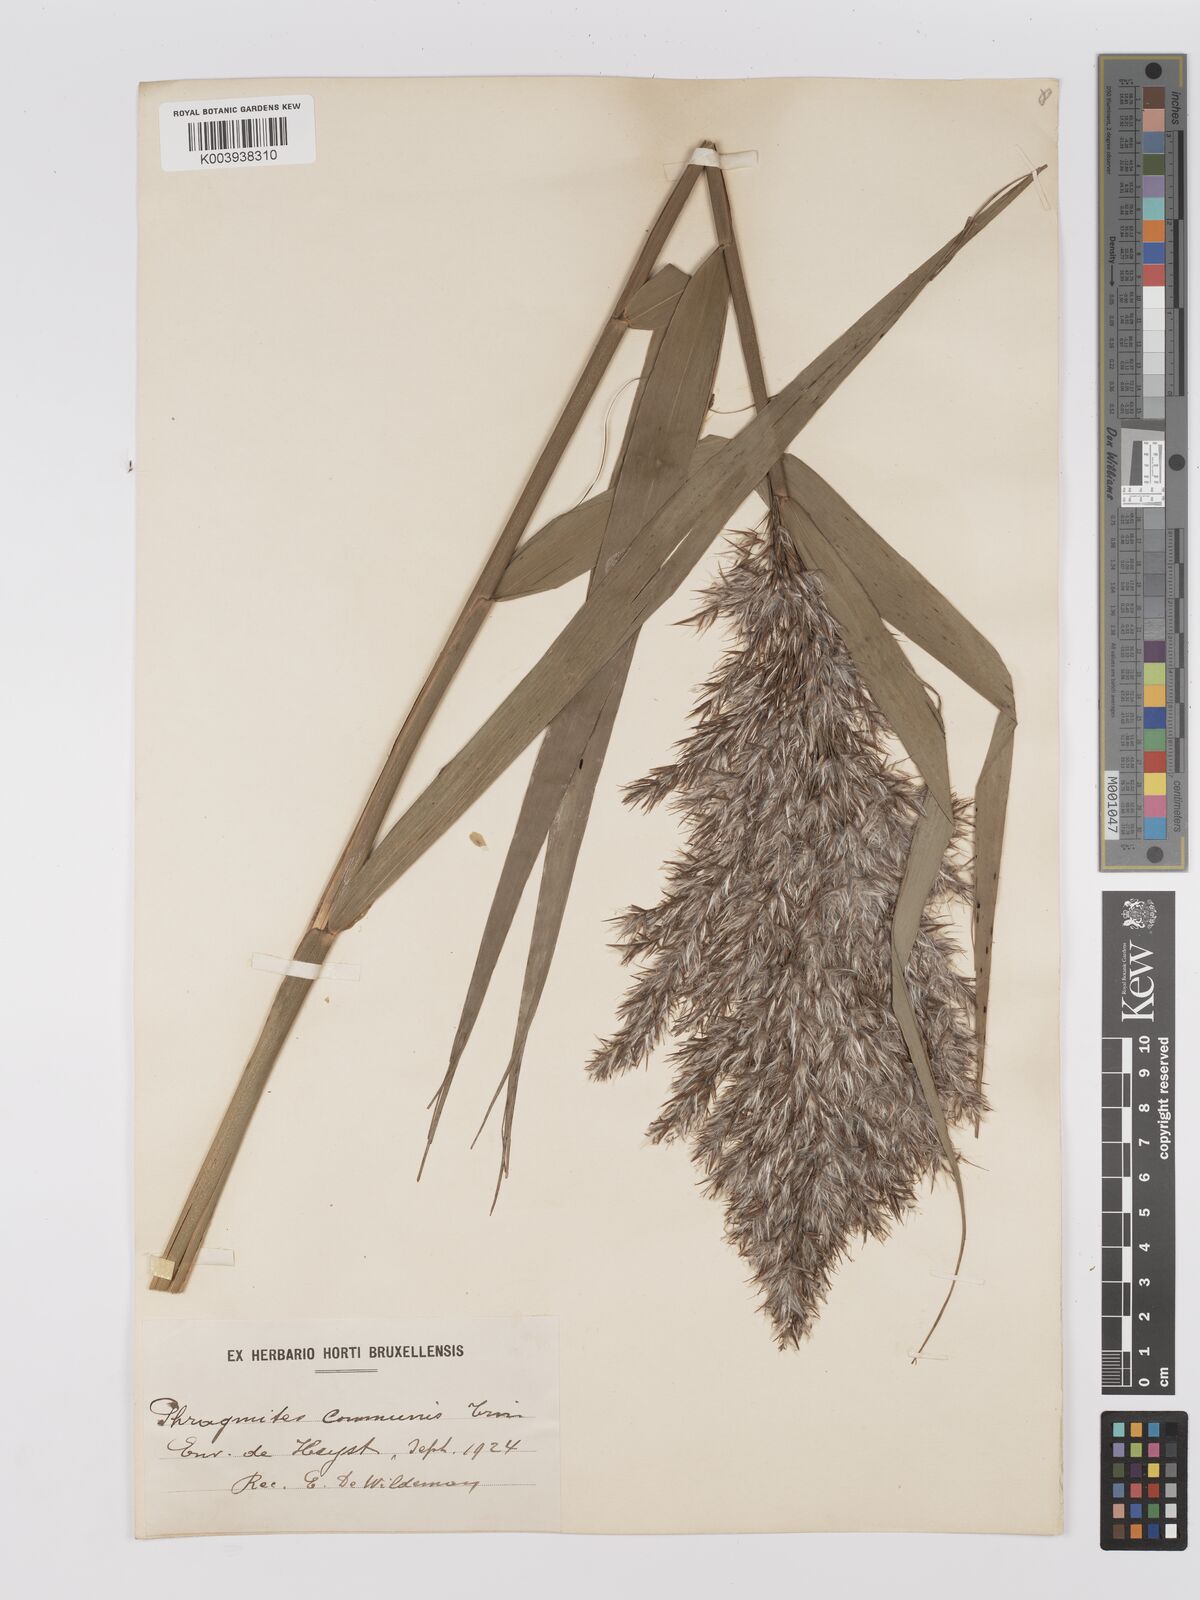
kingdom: Plantae
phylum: Tracheophyta
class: Liliopsida
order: Poales
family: Poaceae
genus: Phragmites
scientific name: Phragmites australis
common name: Common reed
